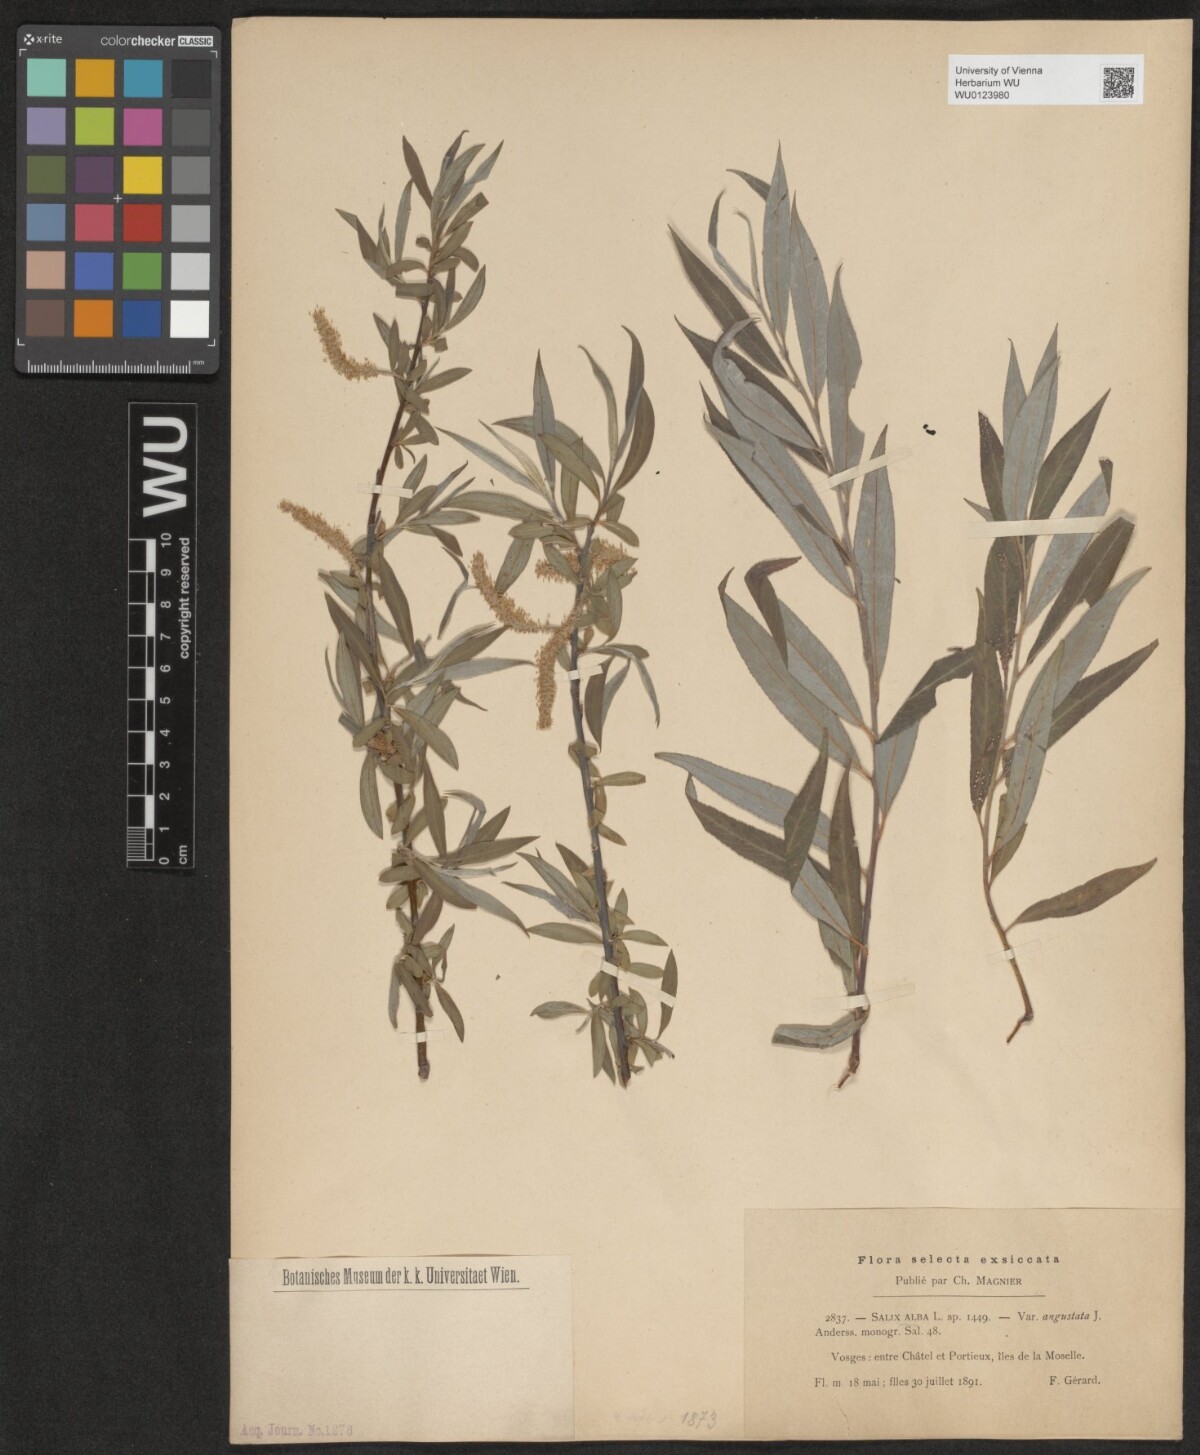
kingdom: Plantae
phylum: Tracheophyta
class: Magnoliopsida
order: Malpighiales
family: Salicaceae
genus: Salix
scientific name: Salix alba
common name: White willow
